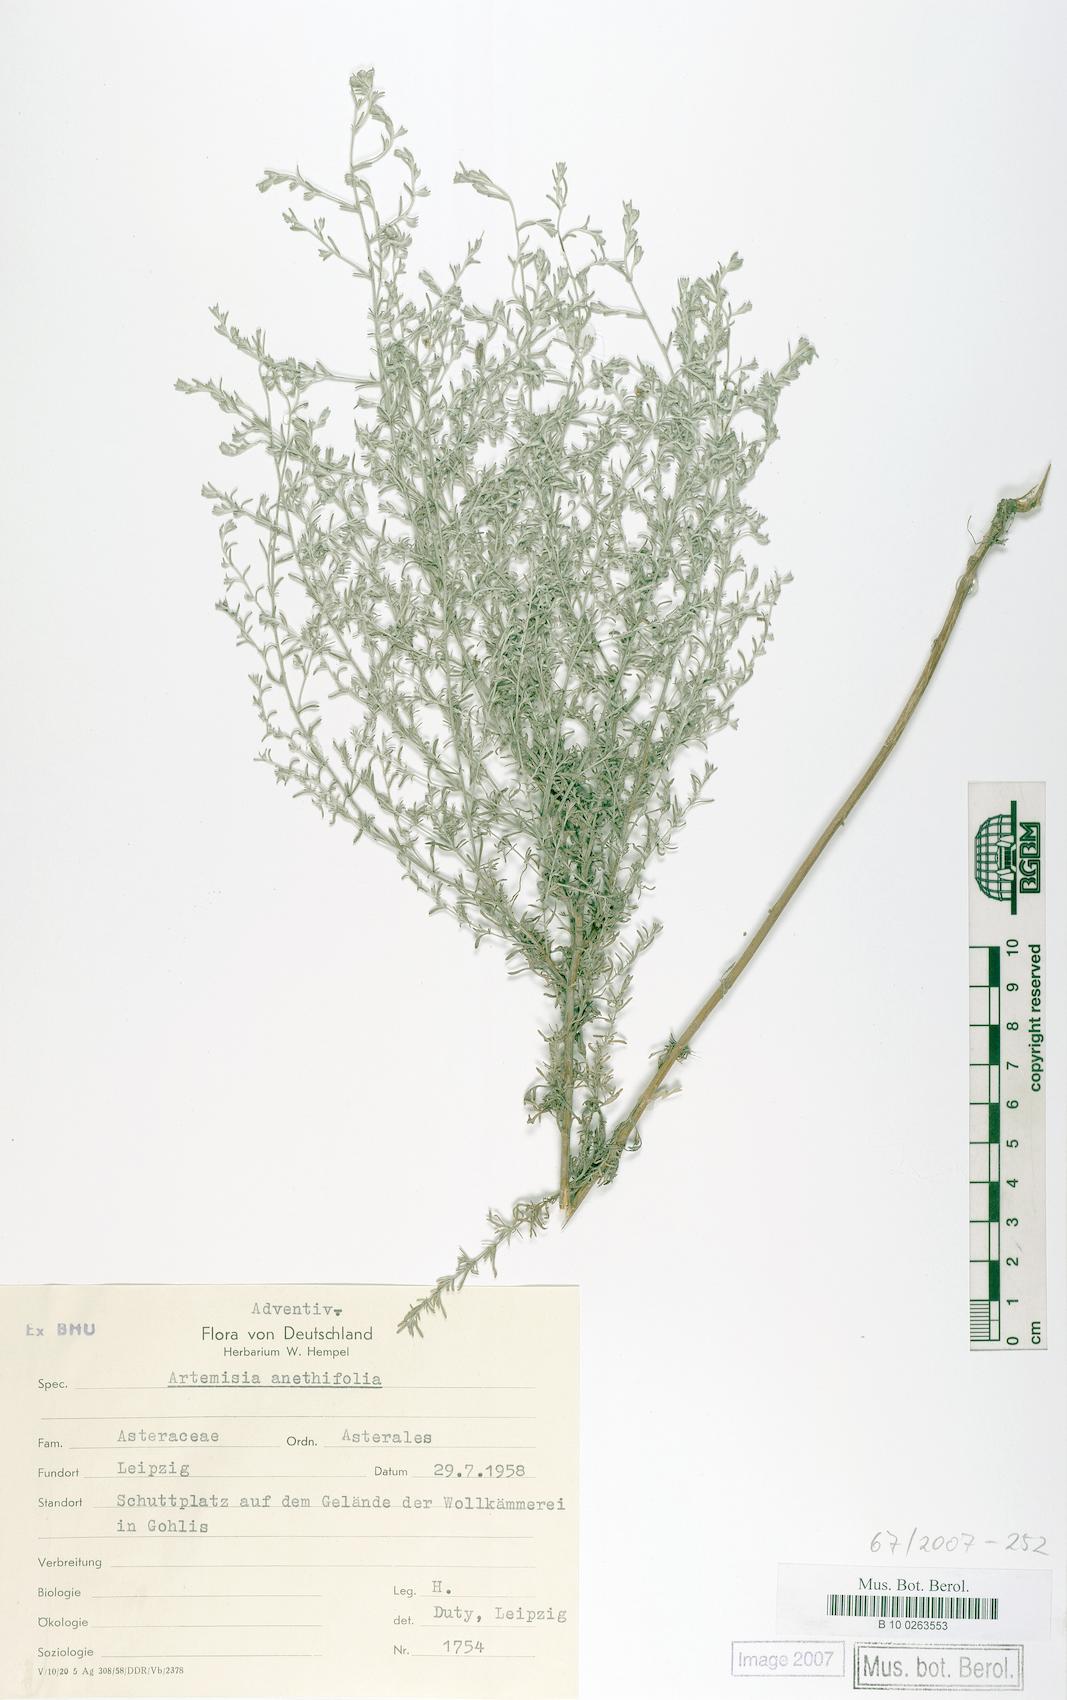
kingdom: Plantae
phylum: Tracheophyta
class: Magnoliopsida
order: Asterales
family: Asteraceae
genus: Artemisia
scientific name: Artemisia anethifolia
